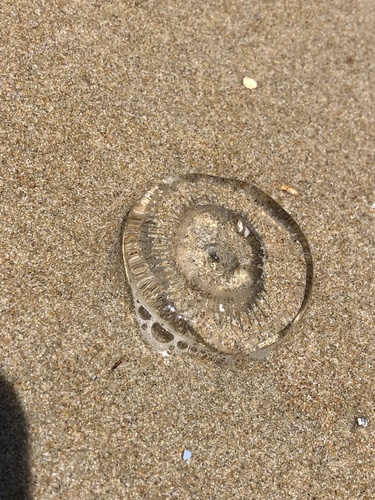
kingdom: Animalia
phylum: Cnidaria
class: Hydrozoa
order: Leptothecata
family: Aequoreidae
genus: Aequorea
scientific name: Aequorea
